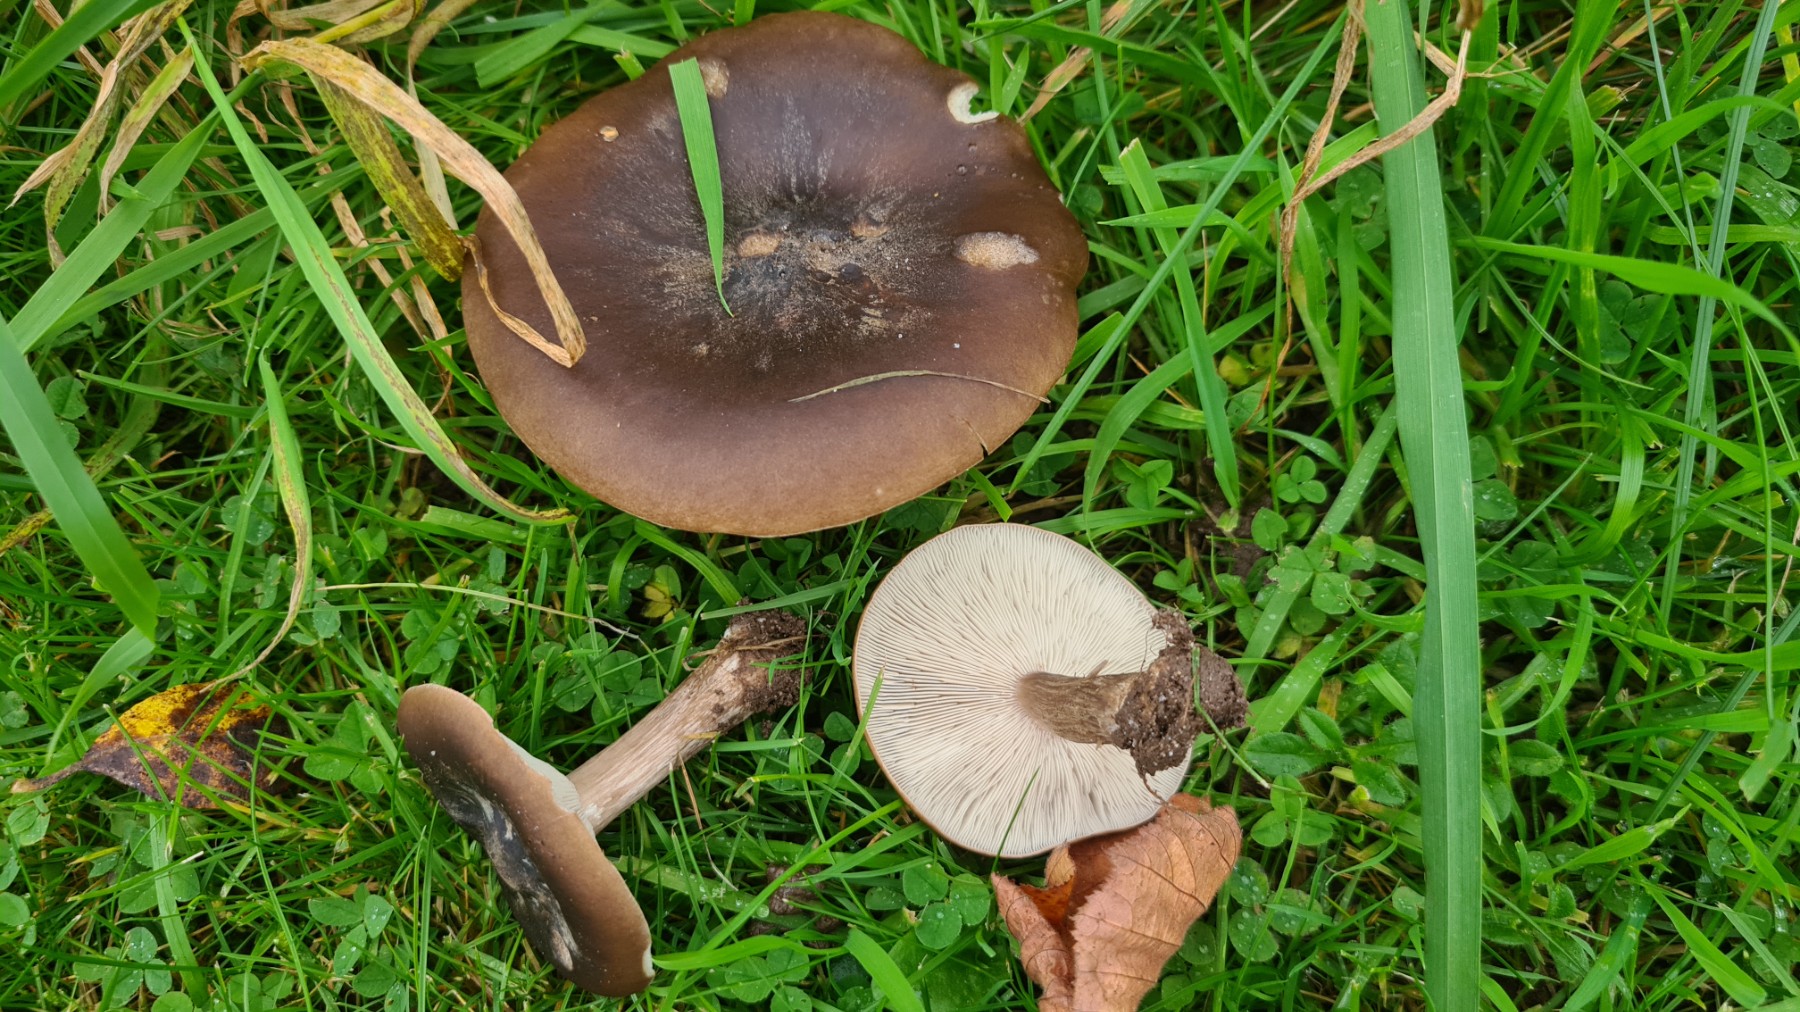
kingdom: Fungi
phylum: Basidiomycota
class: Agaricomycetes
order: Agaricales
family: Tricholomataceae
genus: Melanoleuca
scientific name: Melanoleuca
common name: munkehat
